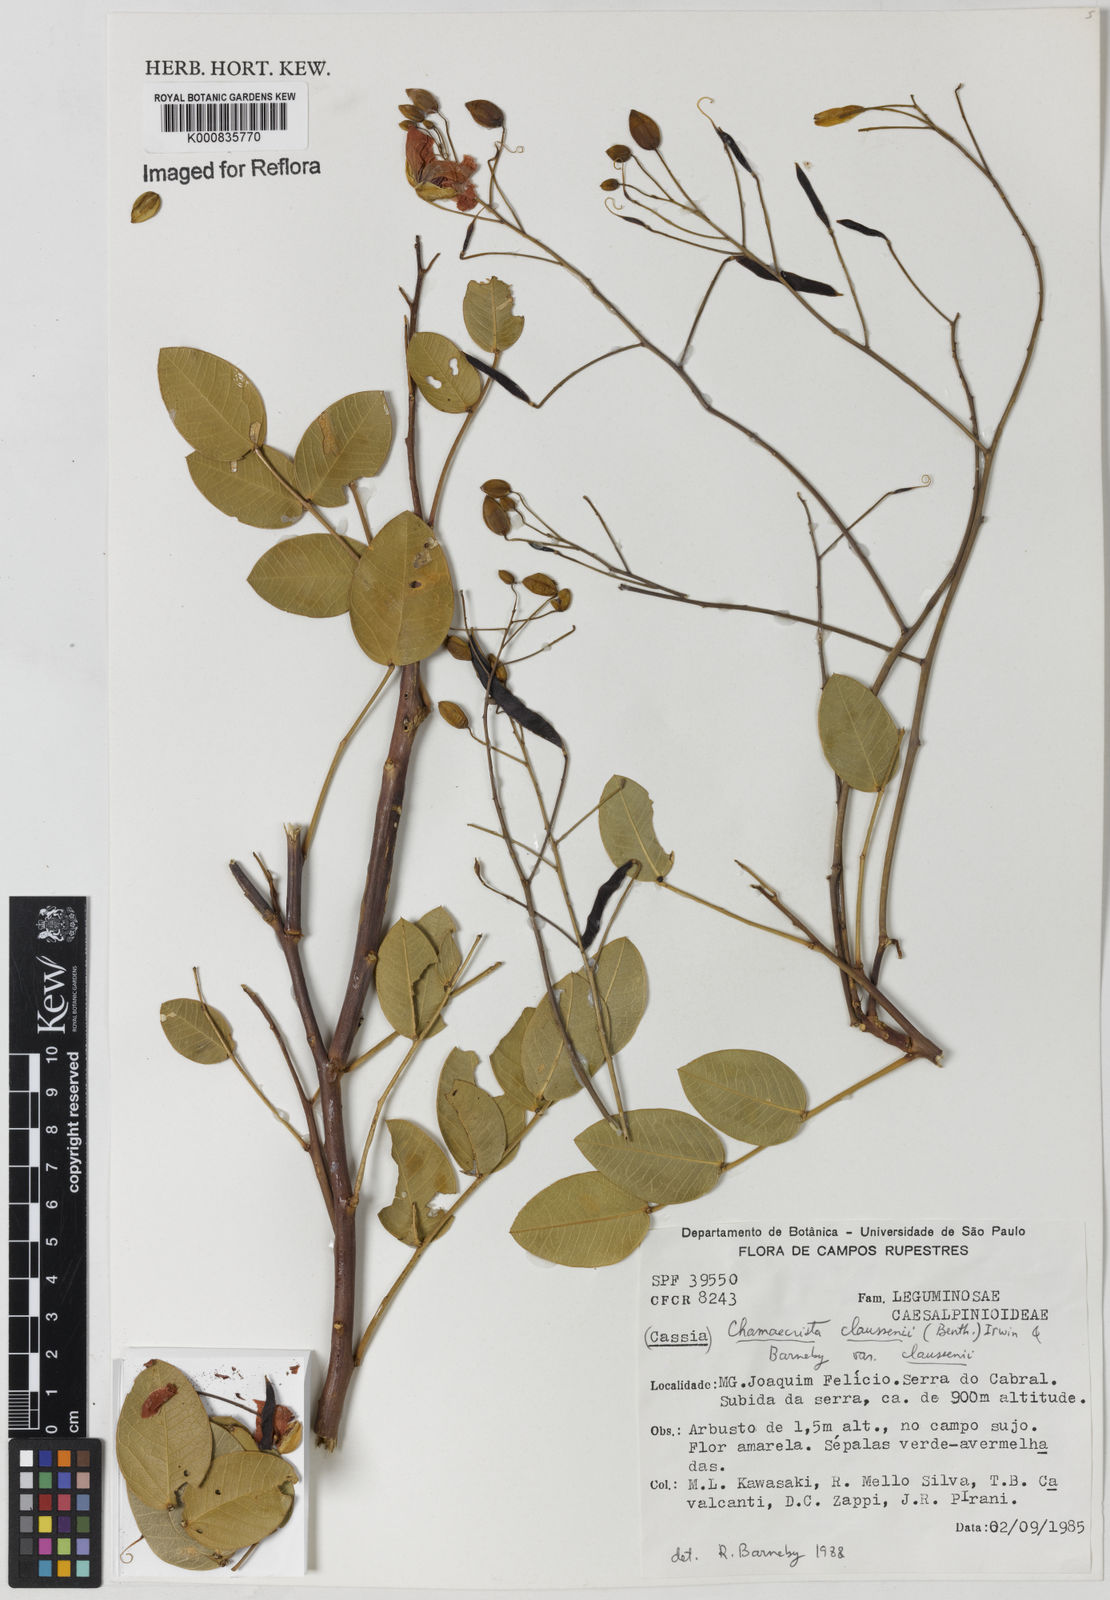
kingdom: Plantae
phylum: Tracheophyta
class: Magnoliopsida
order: Fabales
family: Fabaceae
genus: Chamaecrista
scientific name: Chamaecrista claussenii
